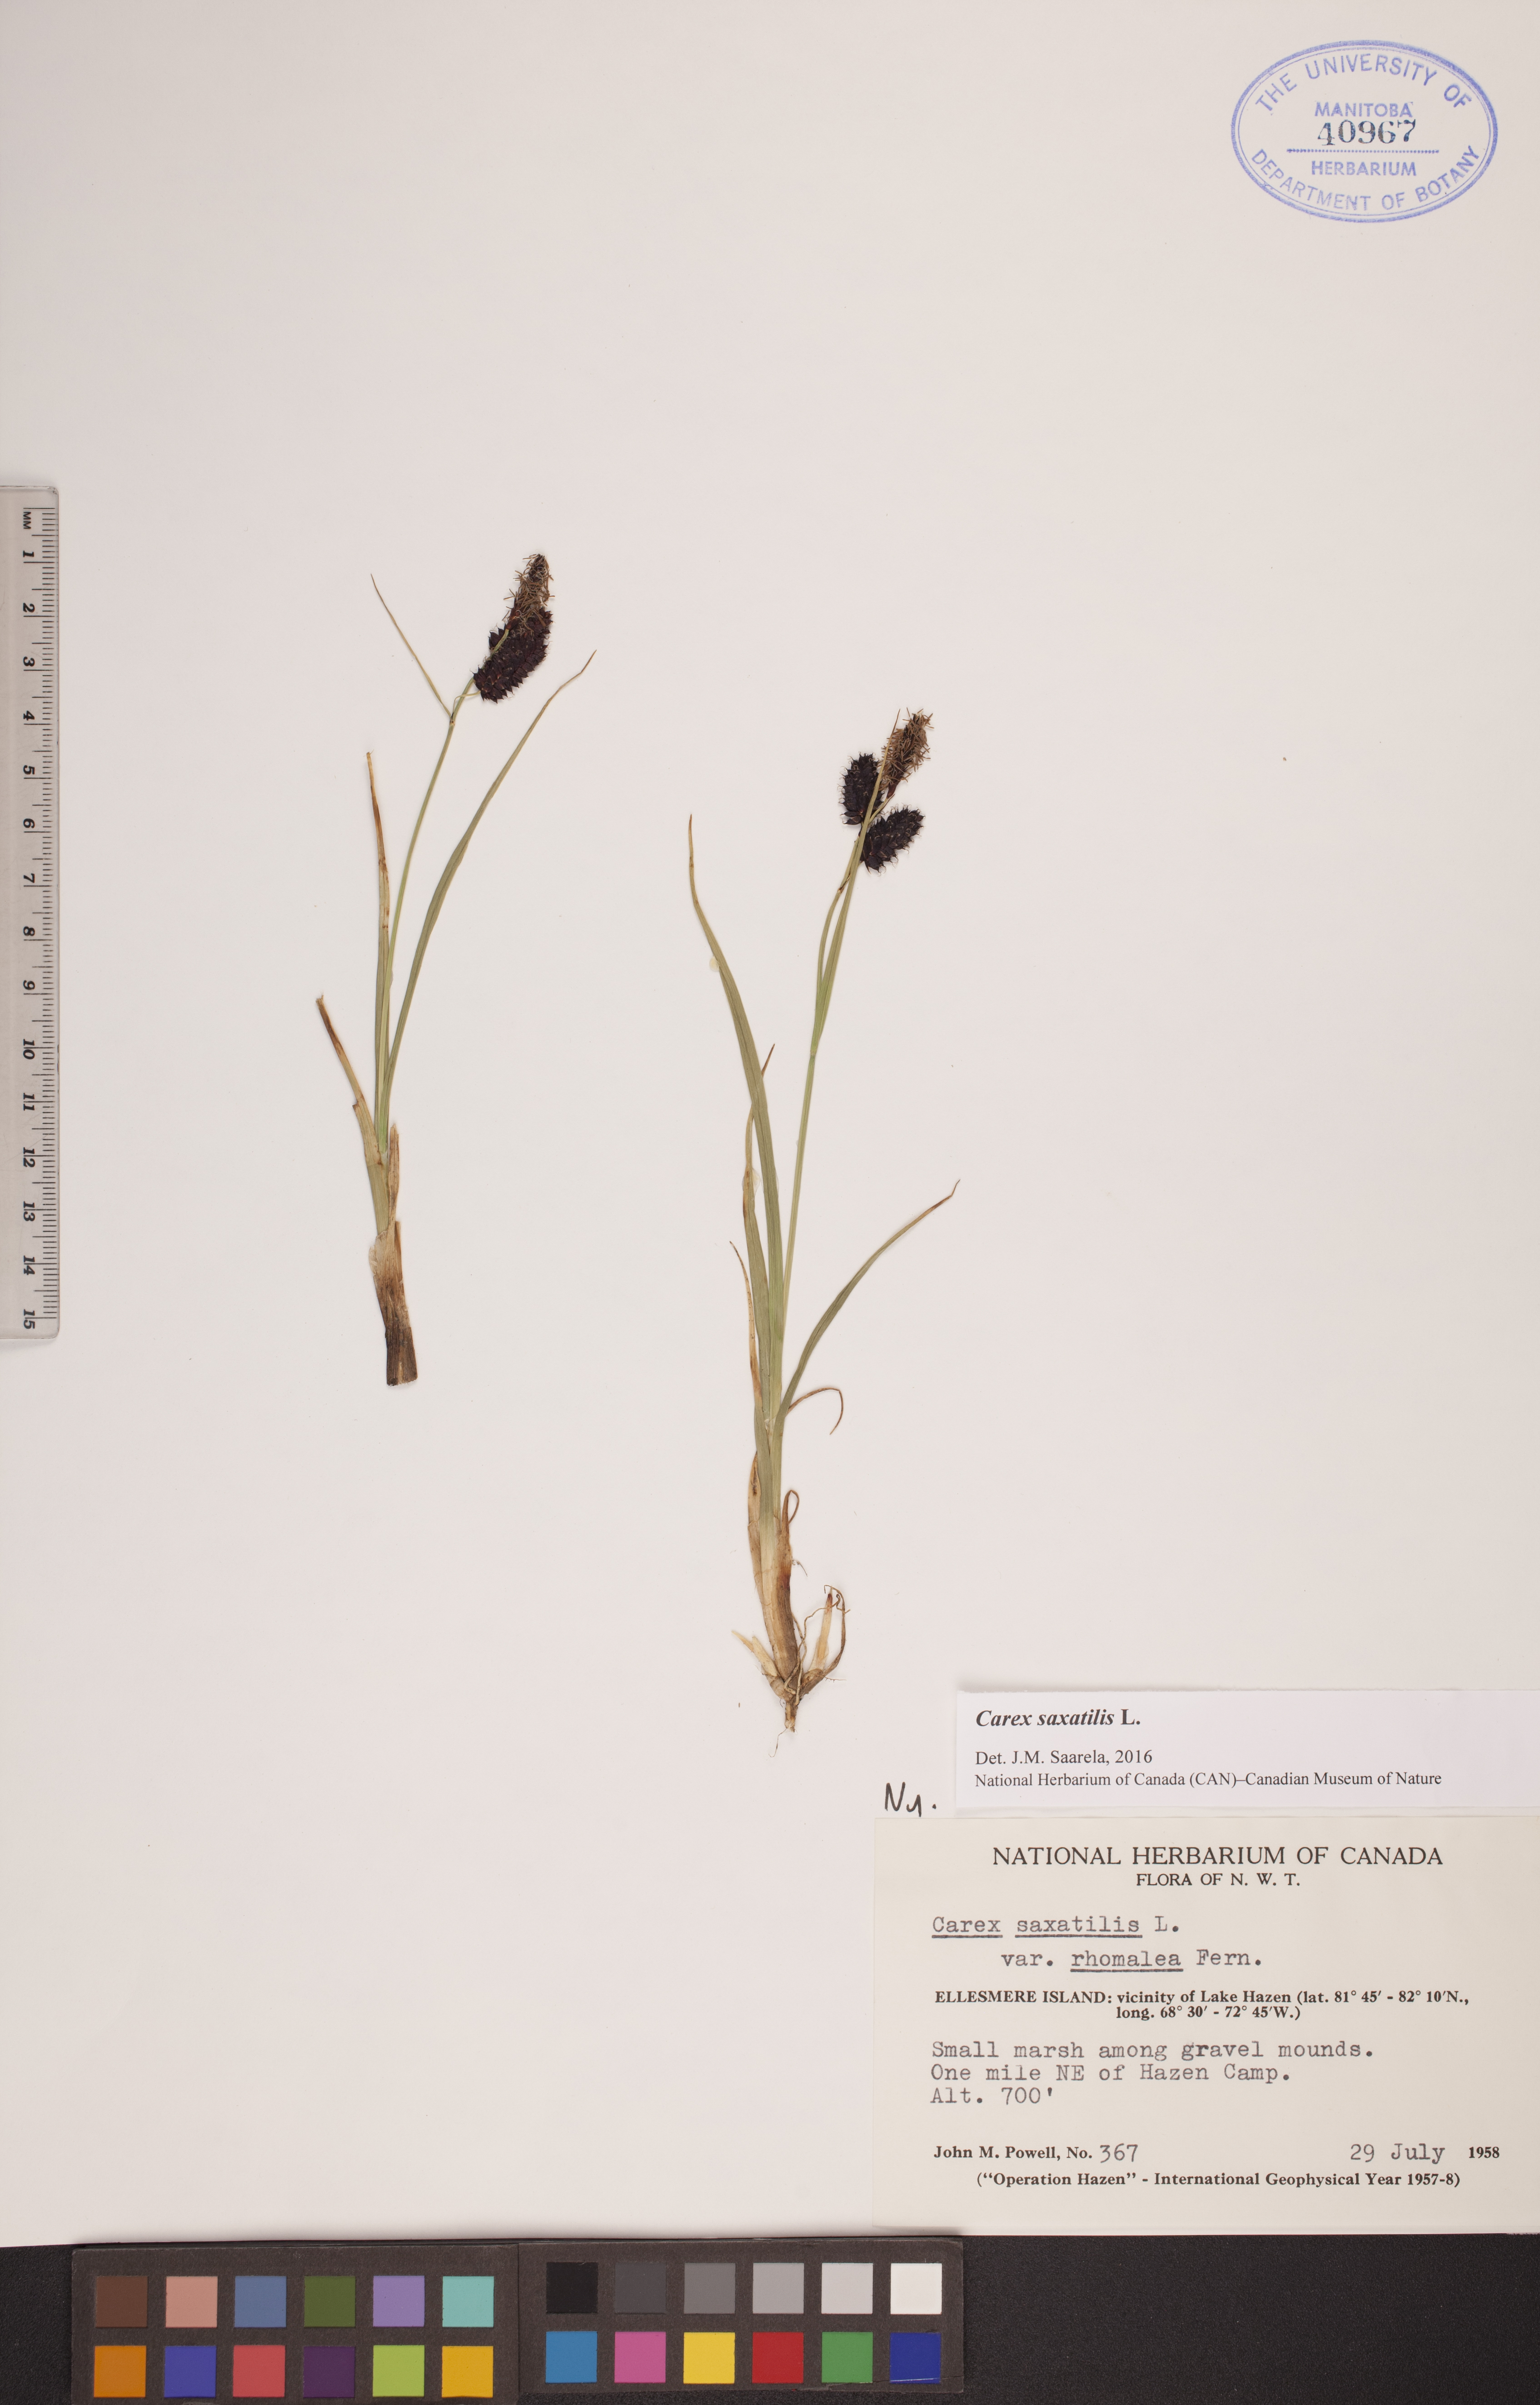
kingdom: Plantae
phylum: Tracheophyta
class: Liliopsida
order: Poales
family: Cyperaceae
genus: Carex
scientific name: Carex saxatilis
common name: Russet sedge
